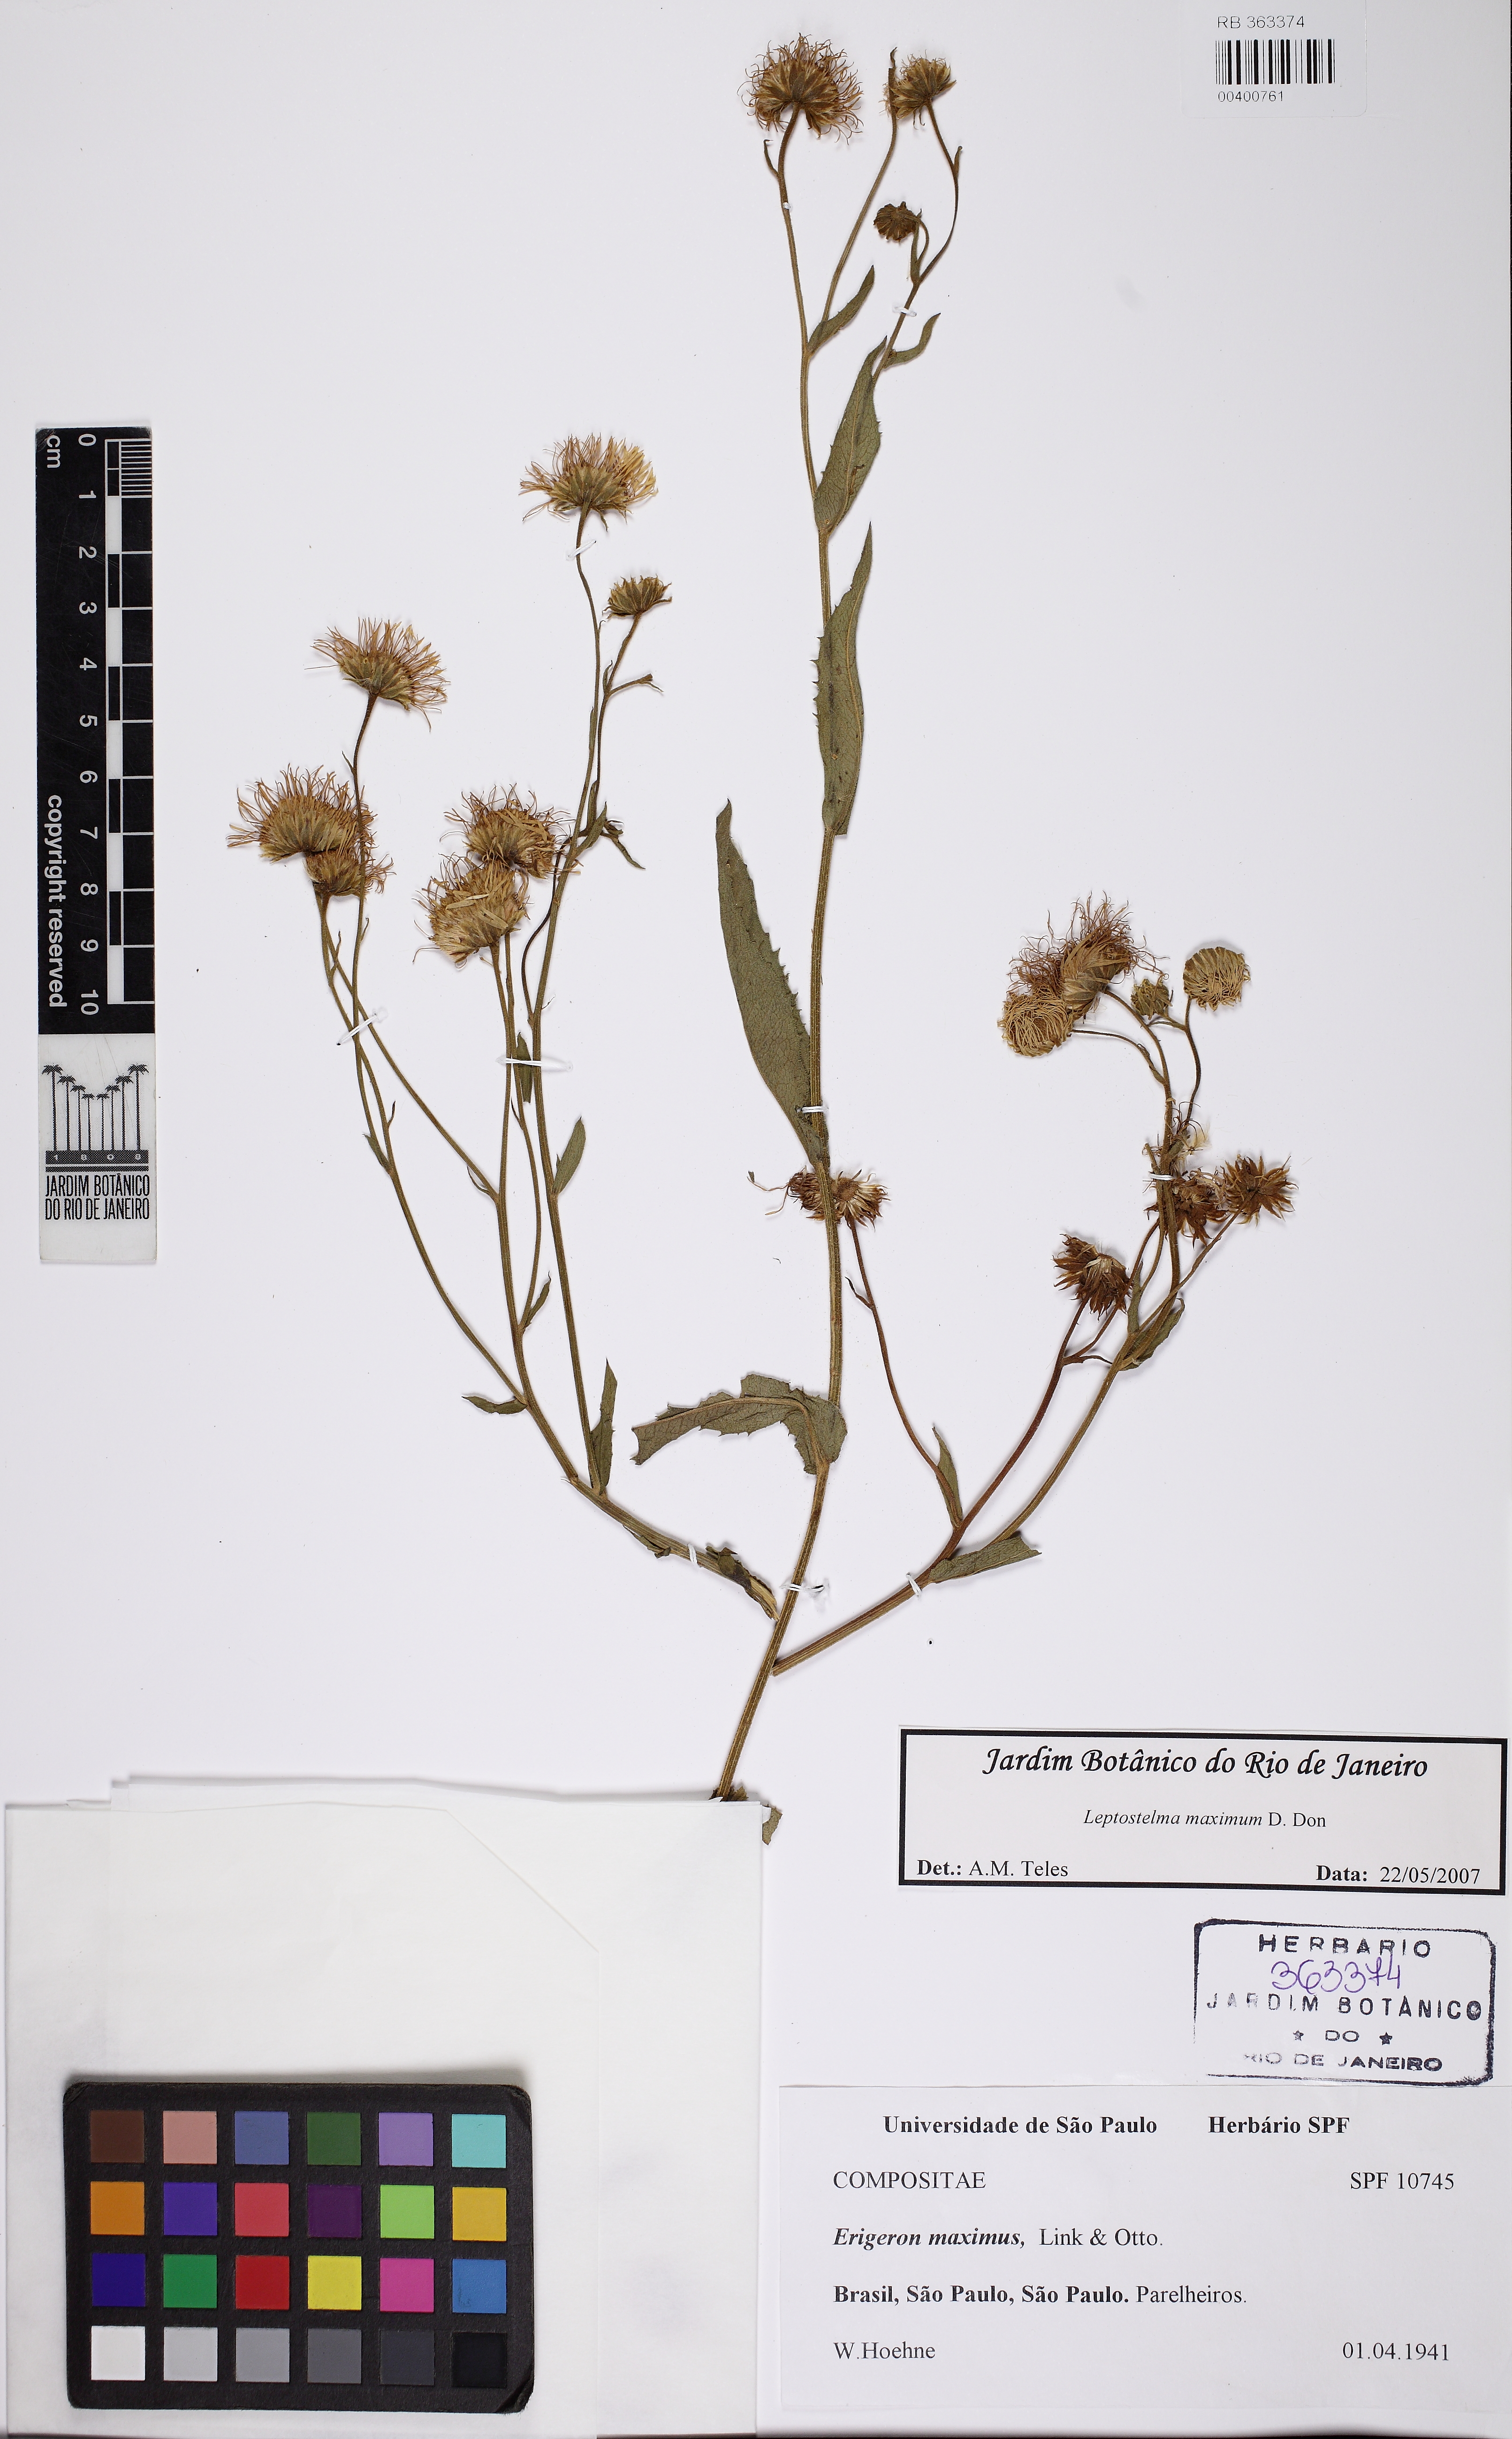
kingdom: Plantae
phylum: Tracheophyta
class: Magnoliopsida
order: Asterales
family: Asteraceae
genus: Leptostelma
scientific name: Leptostelma maxima
